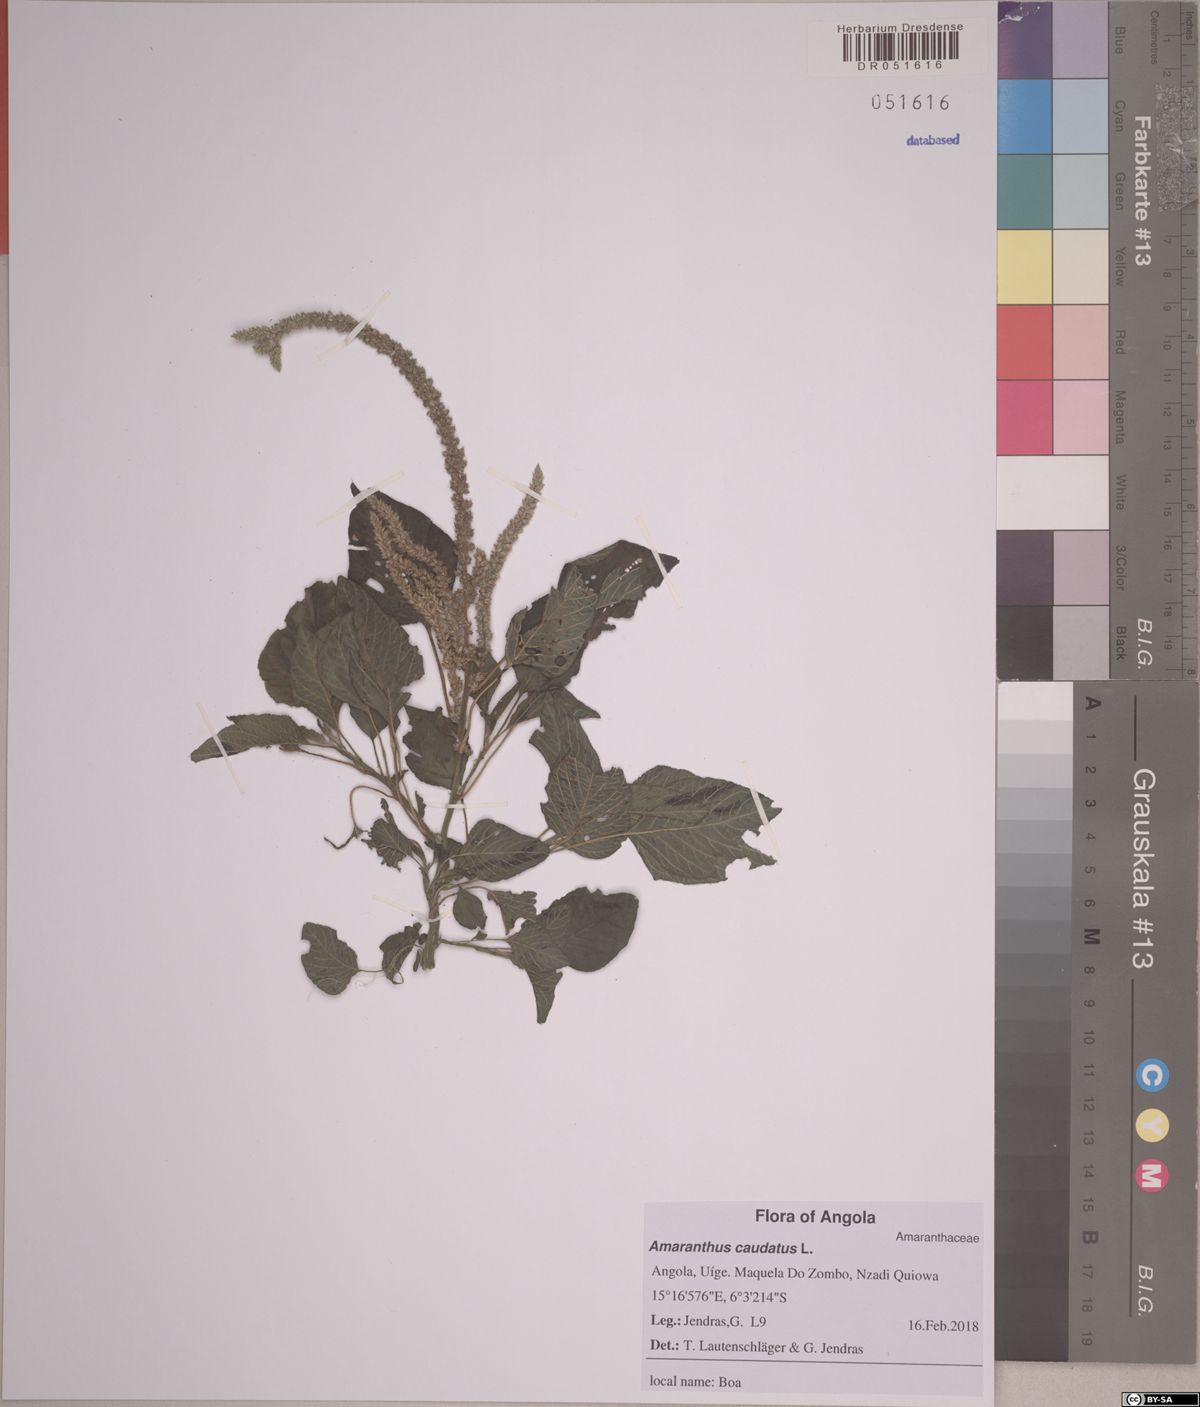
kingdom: Plantae
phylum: Tracheophyta
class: Magnoliopsida
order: Caryophyllales
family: Amaranthaceae
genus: Amaranthus
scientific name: Amaranthus dubius
